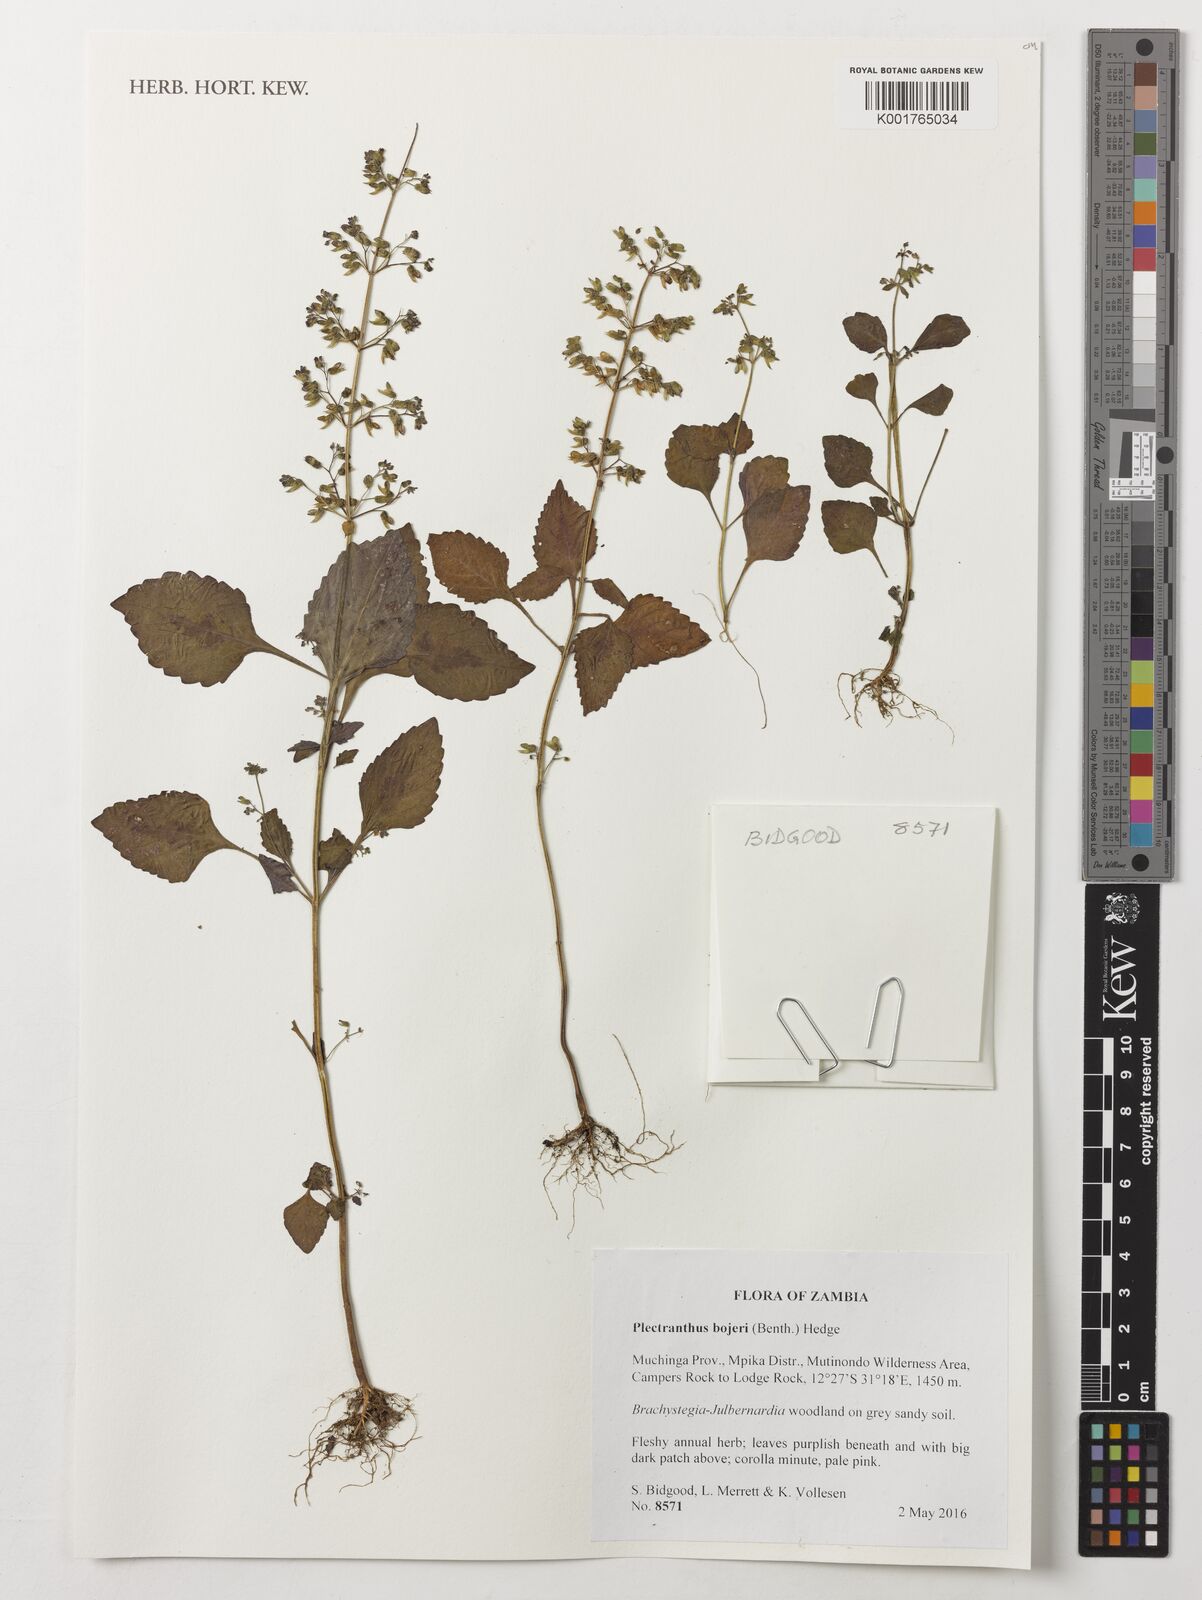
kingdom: Plantae
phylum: Tracheophyta
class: Magnoliopsida
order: Lamiales
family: Lamiaceae
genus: Coleus
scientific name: Coleus bojeri
